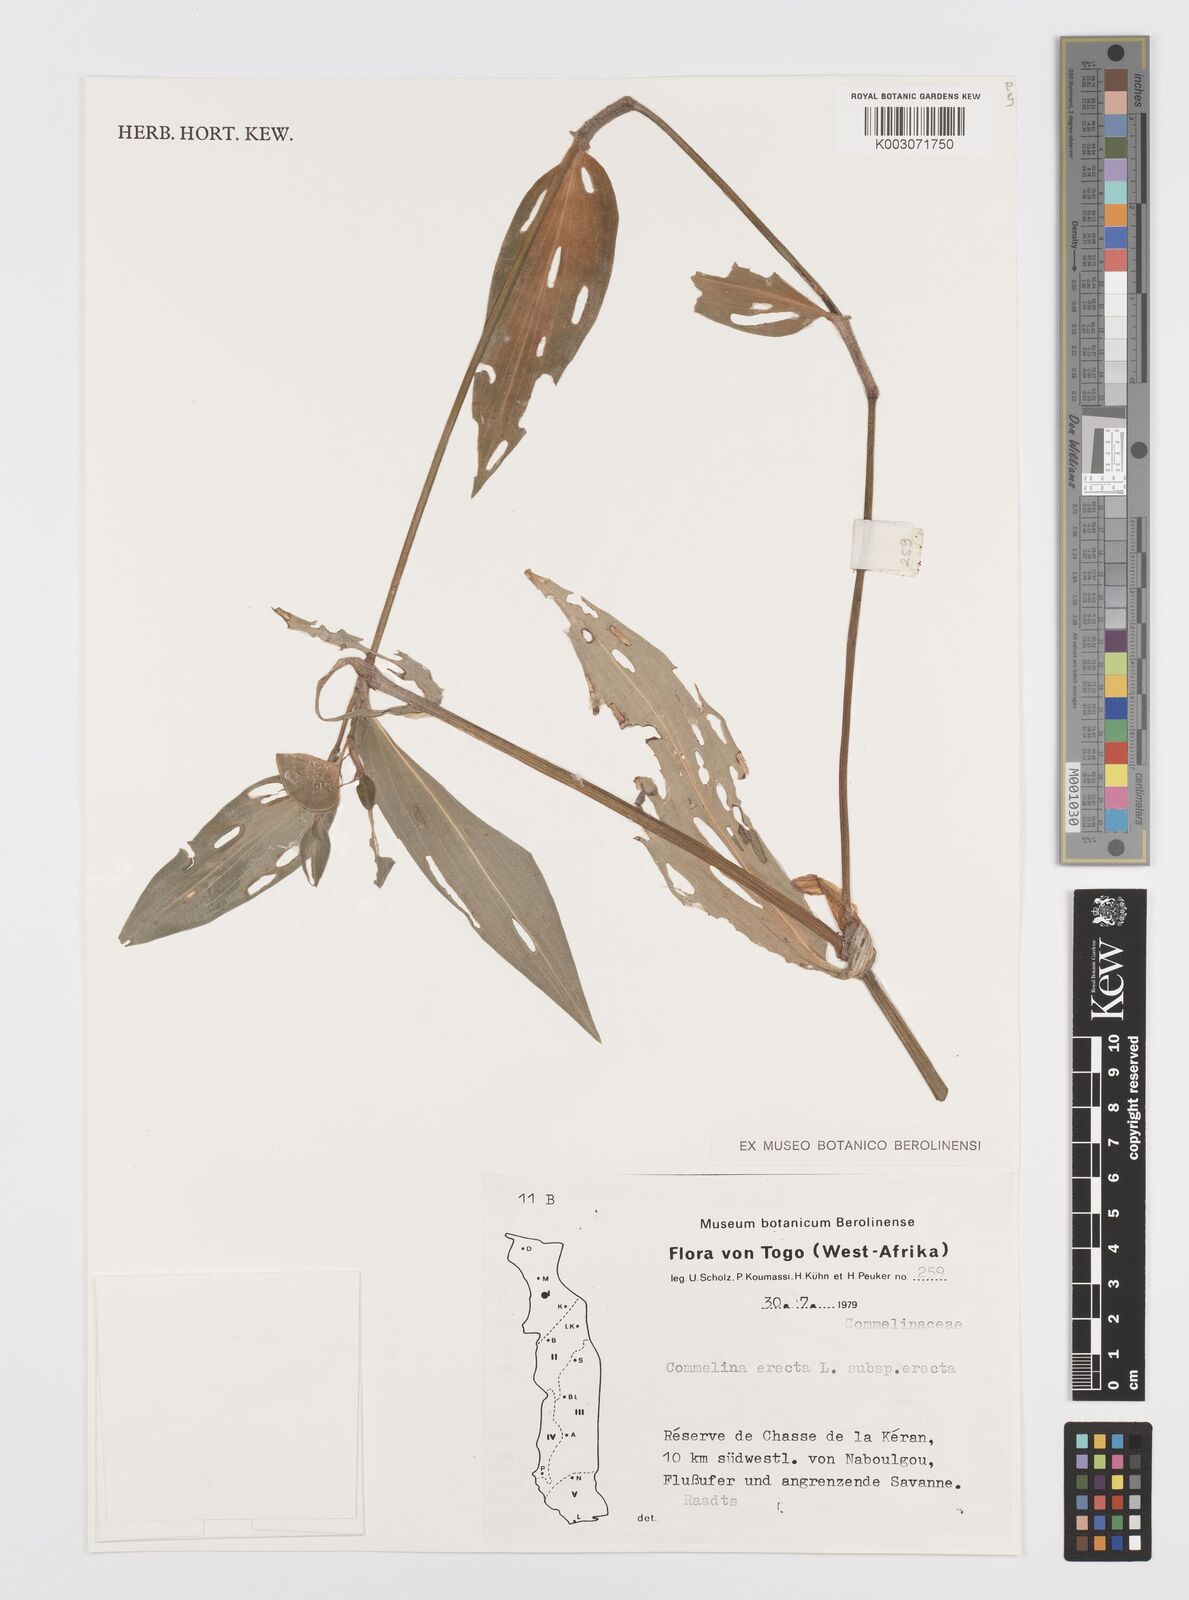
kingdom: Plantae
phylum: Tracheophyta
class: Liliopsida
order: Commelinales
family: Commelinaceae
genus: Commelina
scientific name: Commelina erecta
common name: Blousel blommetjie
